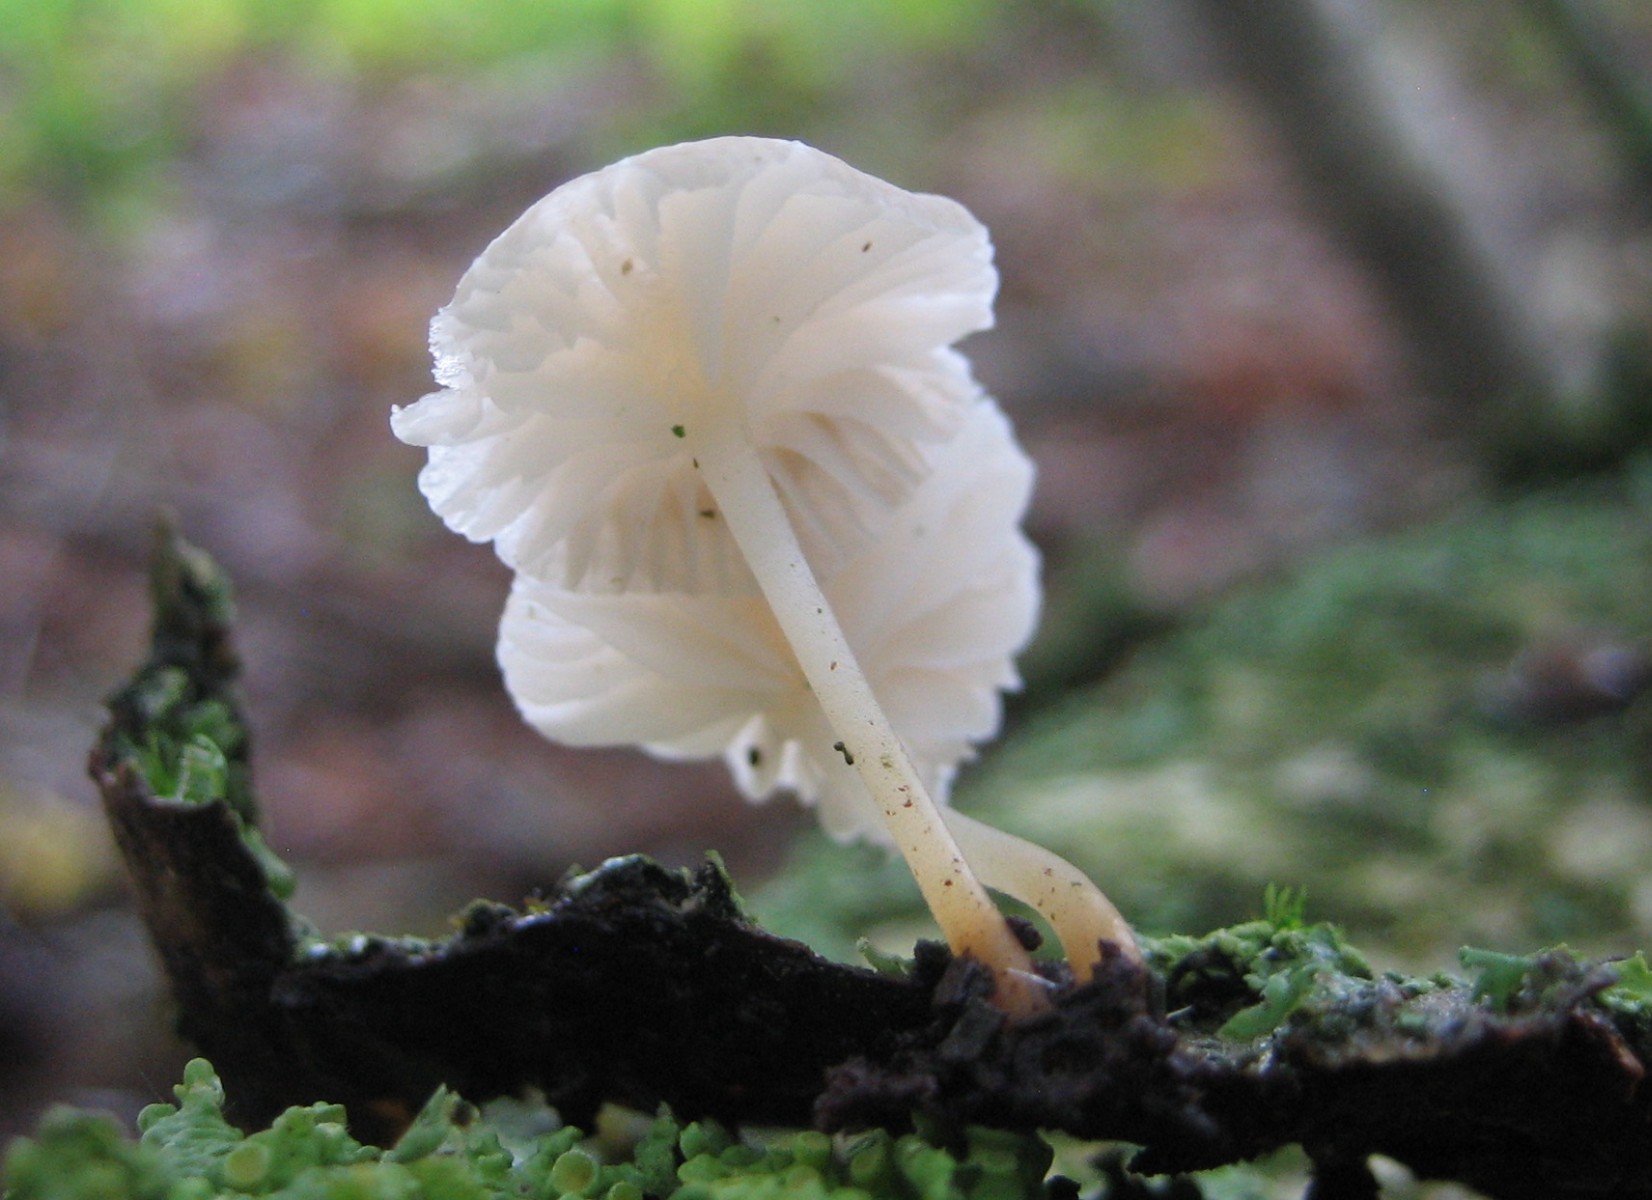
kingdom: Fungi
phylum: Basidiomycota
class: Agaricomycetes
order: Agaricales
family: Porotheleaceae
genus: Phloeomana
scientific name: Phloeomana speirea
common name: kvist-huesvamp
